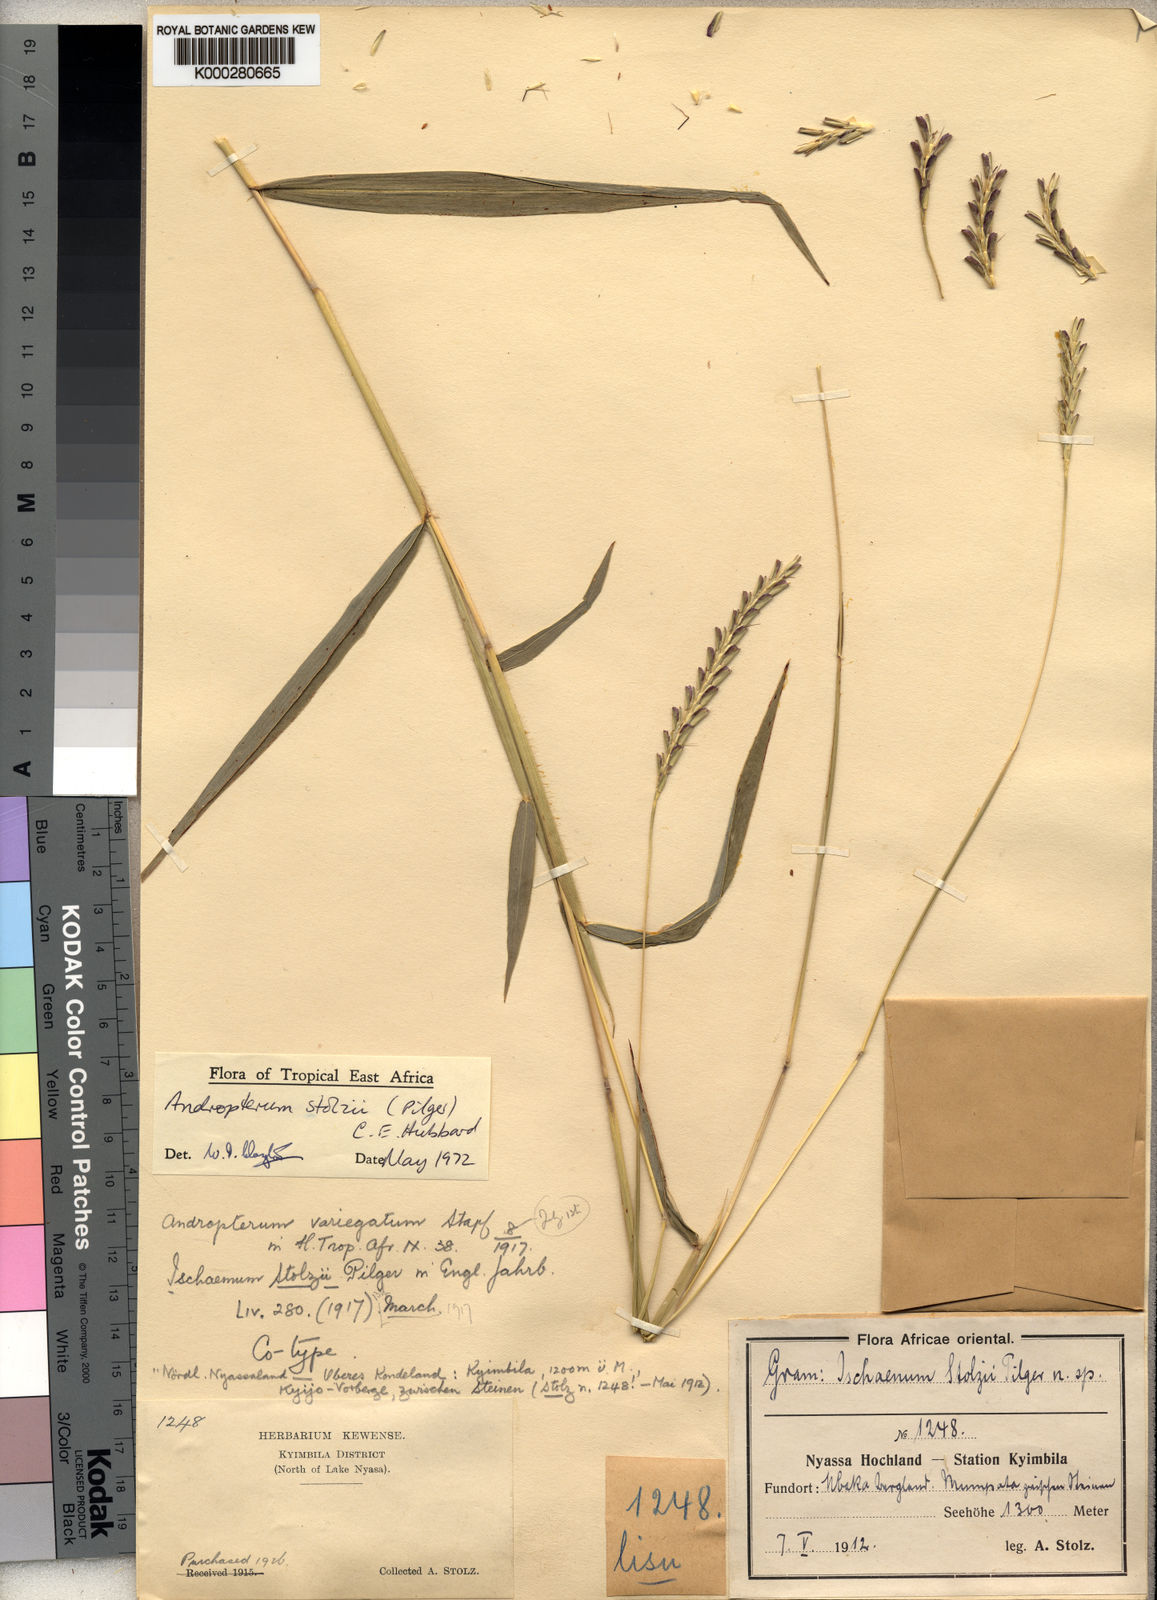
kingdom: Plantae
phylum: Tracheophyta
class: Liliopsida
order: Poales
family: Poaceae
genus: Andropterum
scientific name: Andropterum stolzii
